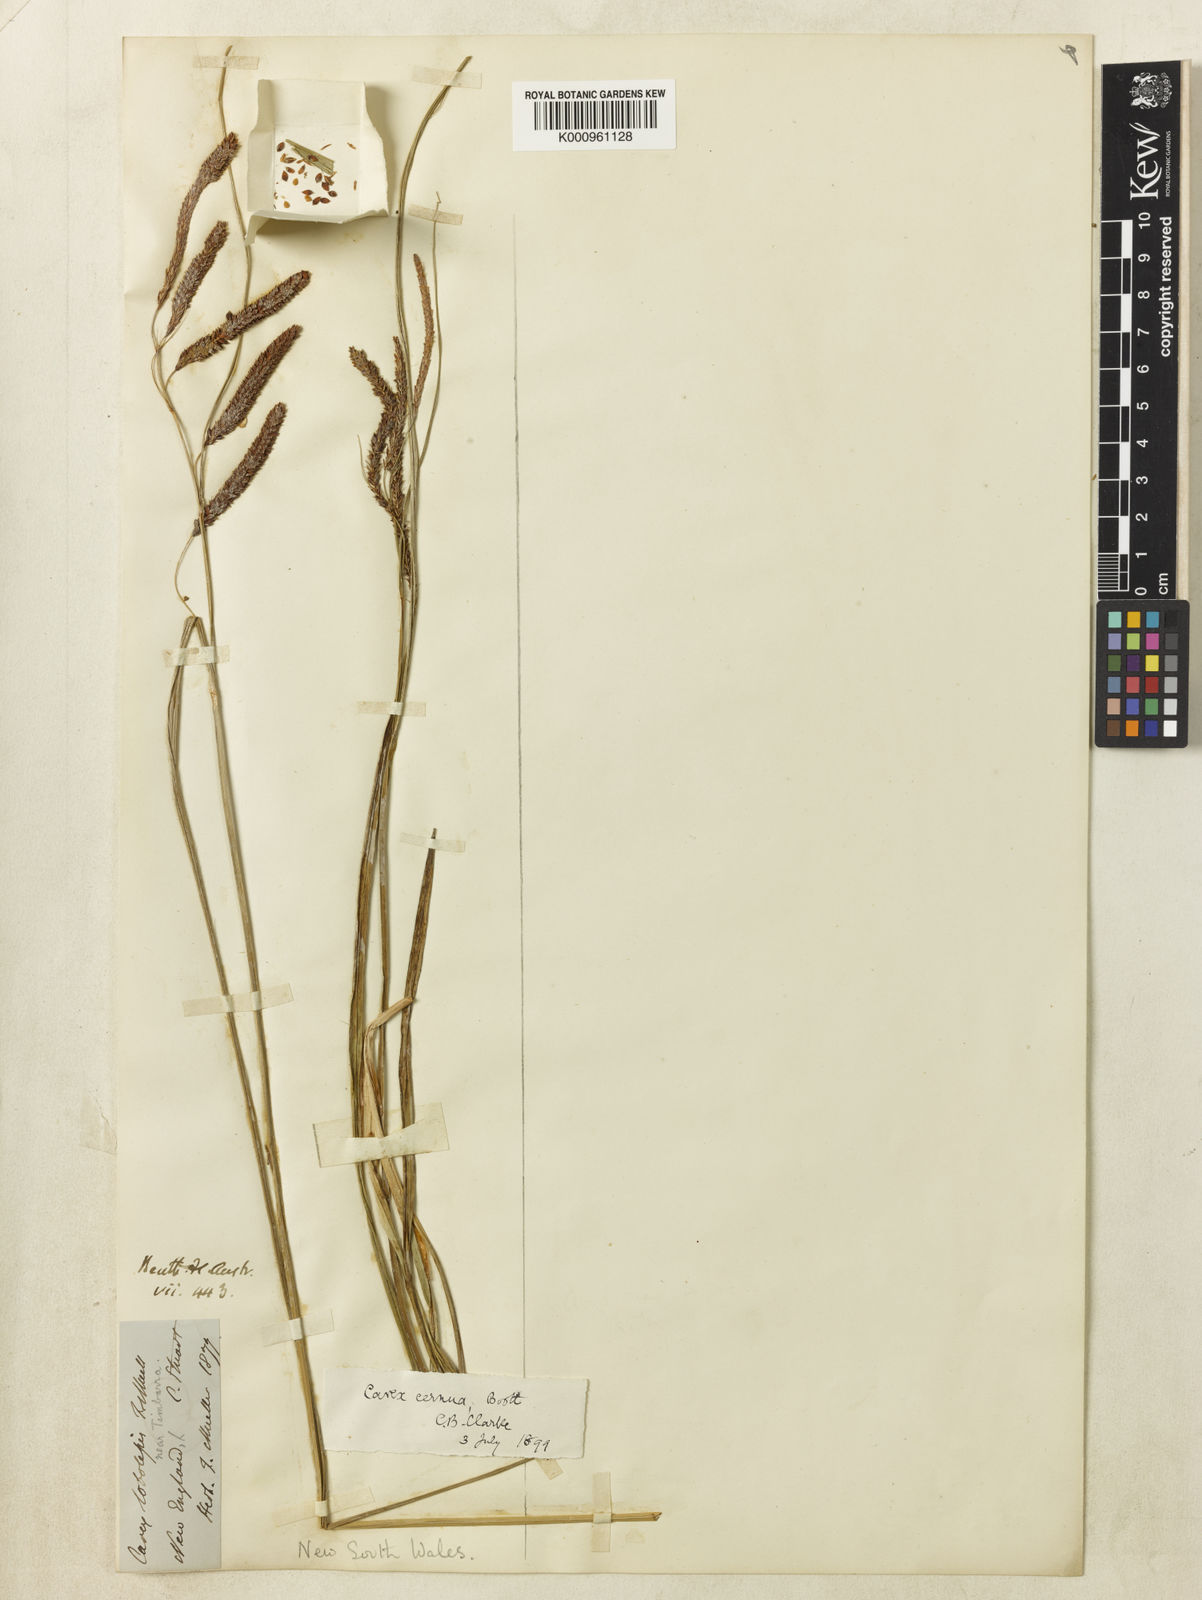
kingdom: Plantae
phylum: Tracheophyta
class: Liliopsida
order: Poales
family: Cyperaceae
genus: Carex
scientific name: Carex lobolepis
